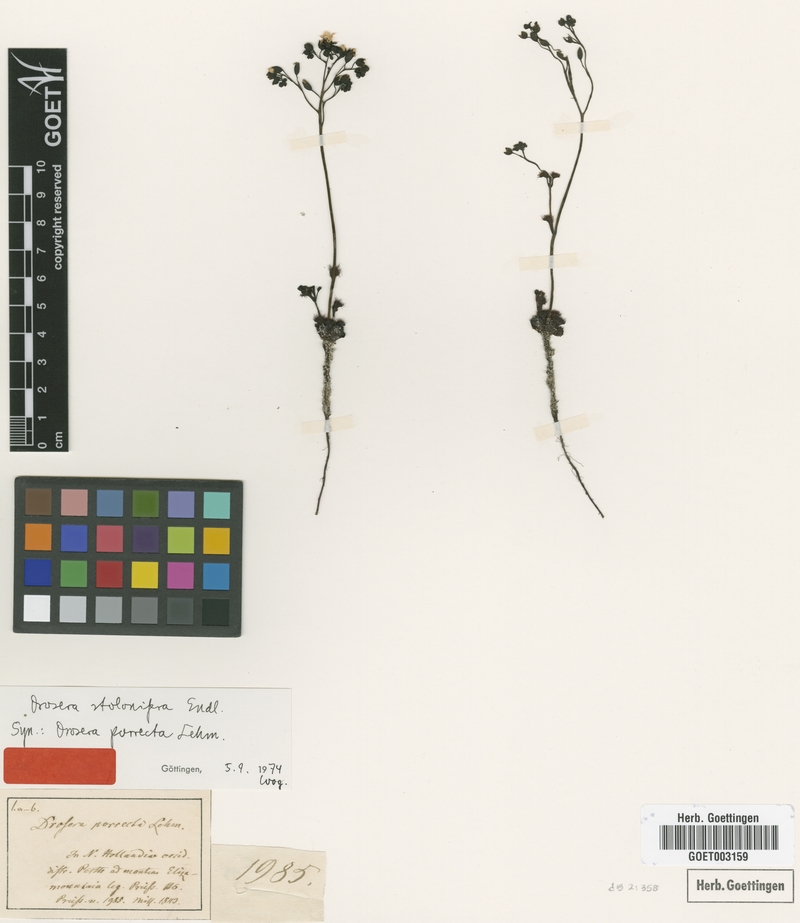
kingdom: Plantae
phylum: Tracheophyta
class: Magnoliopsida
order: Caryophyllales
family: Droseraceae
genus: Drosera
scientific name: Drosera stolonifera
